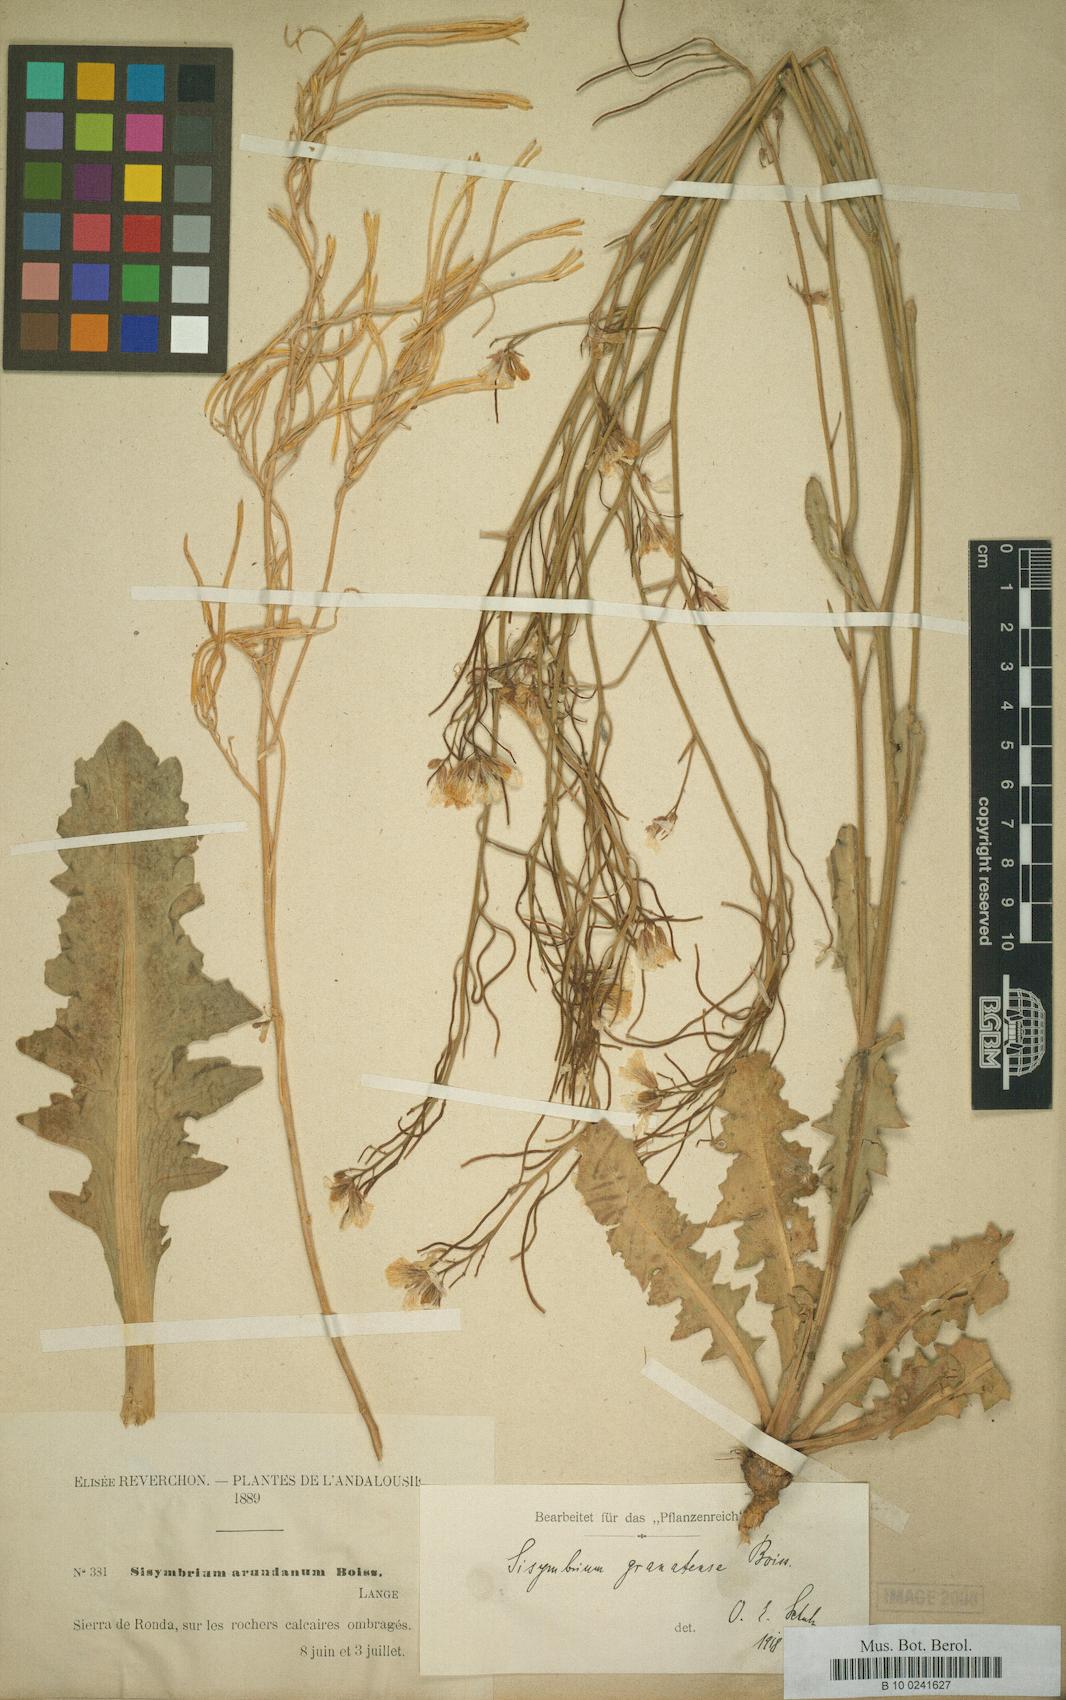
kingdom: Plantae
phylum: Tracheophyta
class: Magnoliopsida
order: Brassicales
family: Brassicaceae
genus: Sisymbrium
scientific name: Sisymbrium crassifolium
